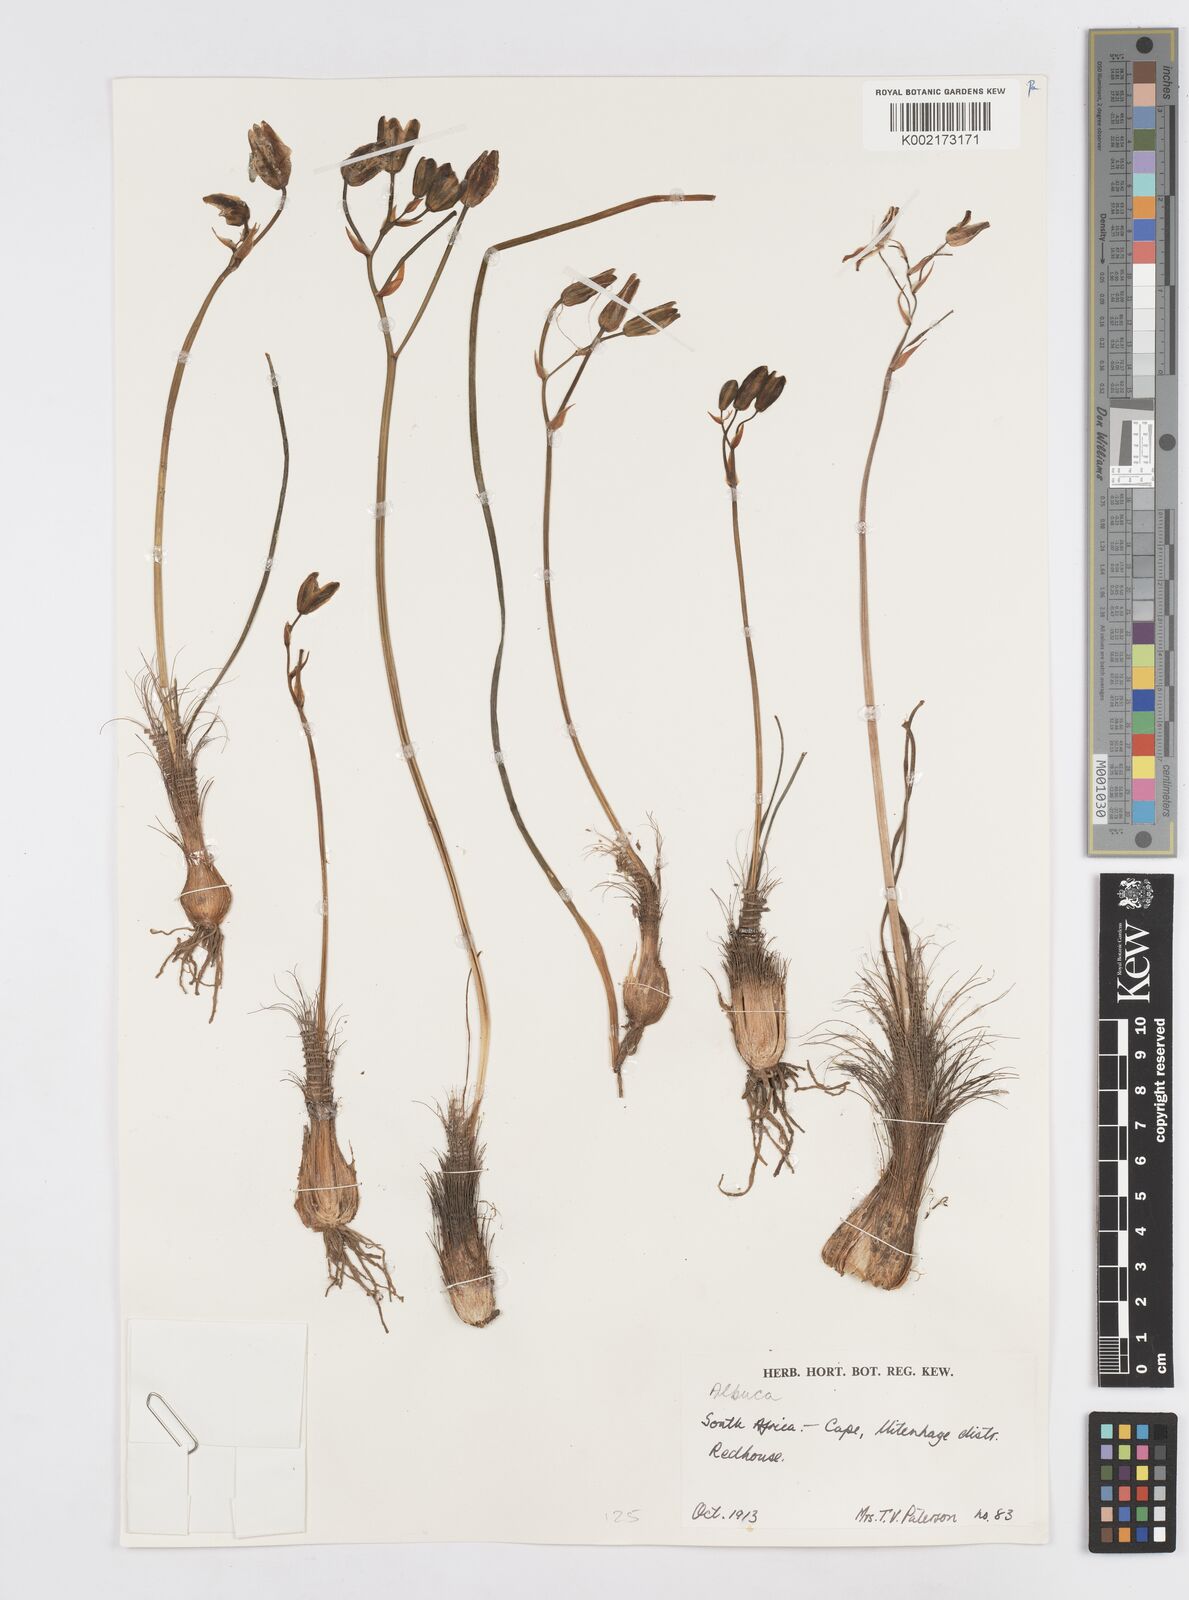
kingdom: Plantae
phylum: Tracheophyta
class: Liliopsida
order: Asparagales
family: Asparagaceae
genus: Albuca
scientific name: Albuca
